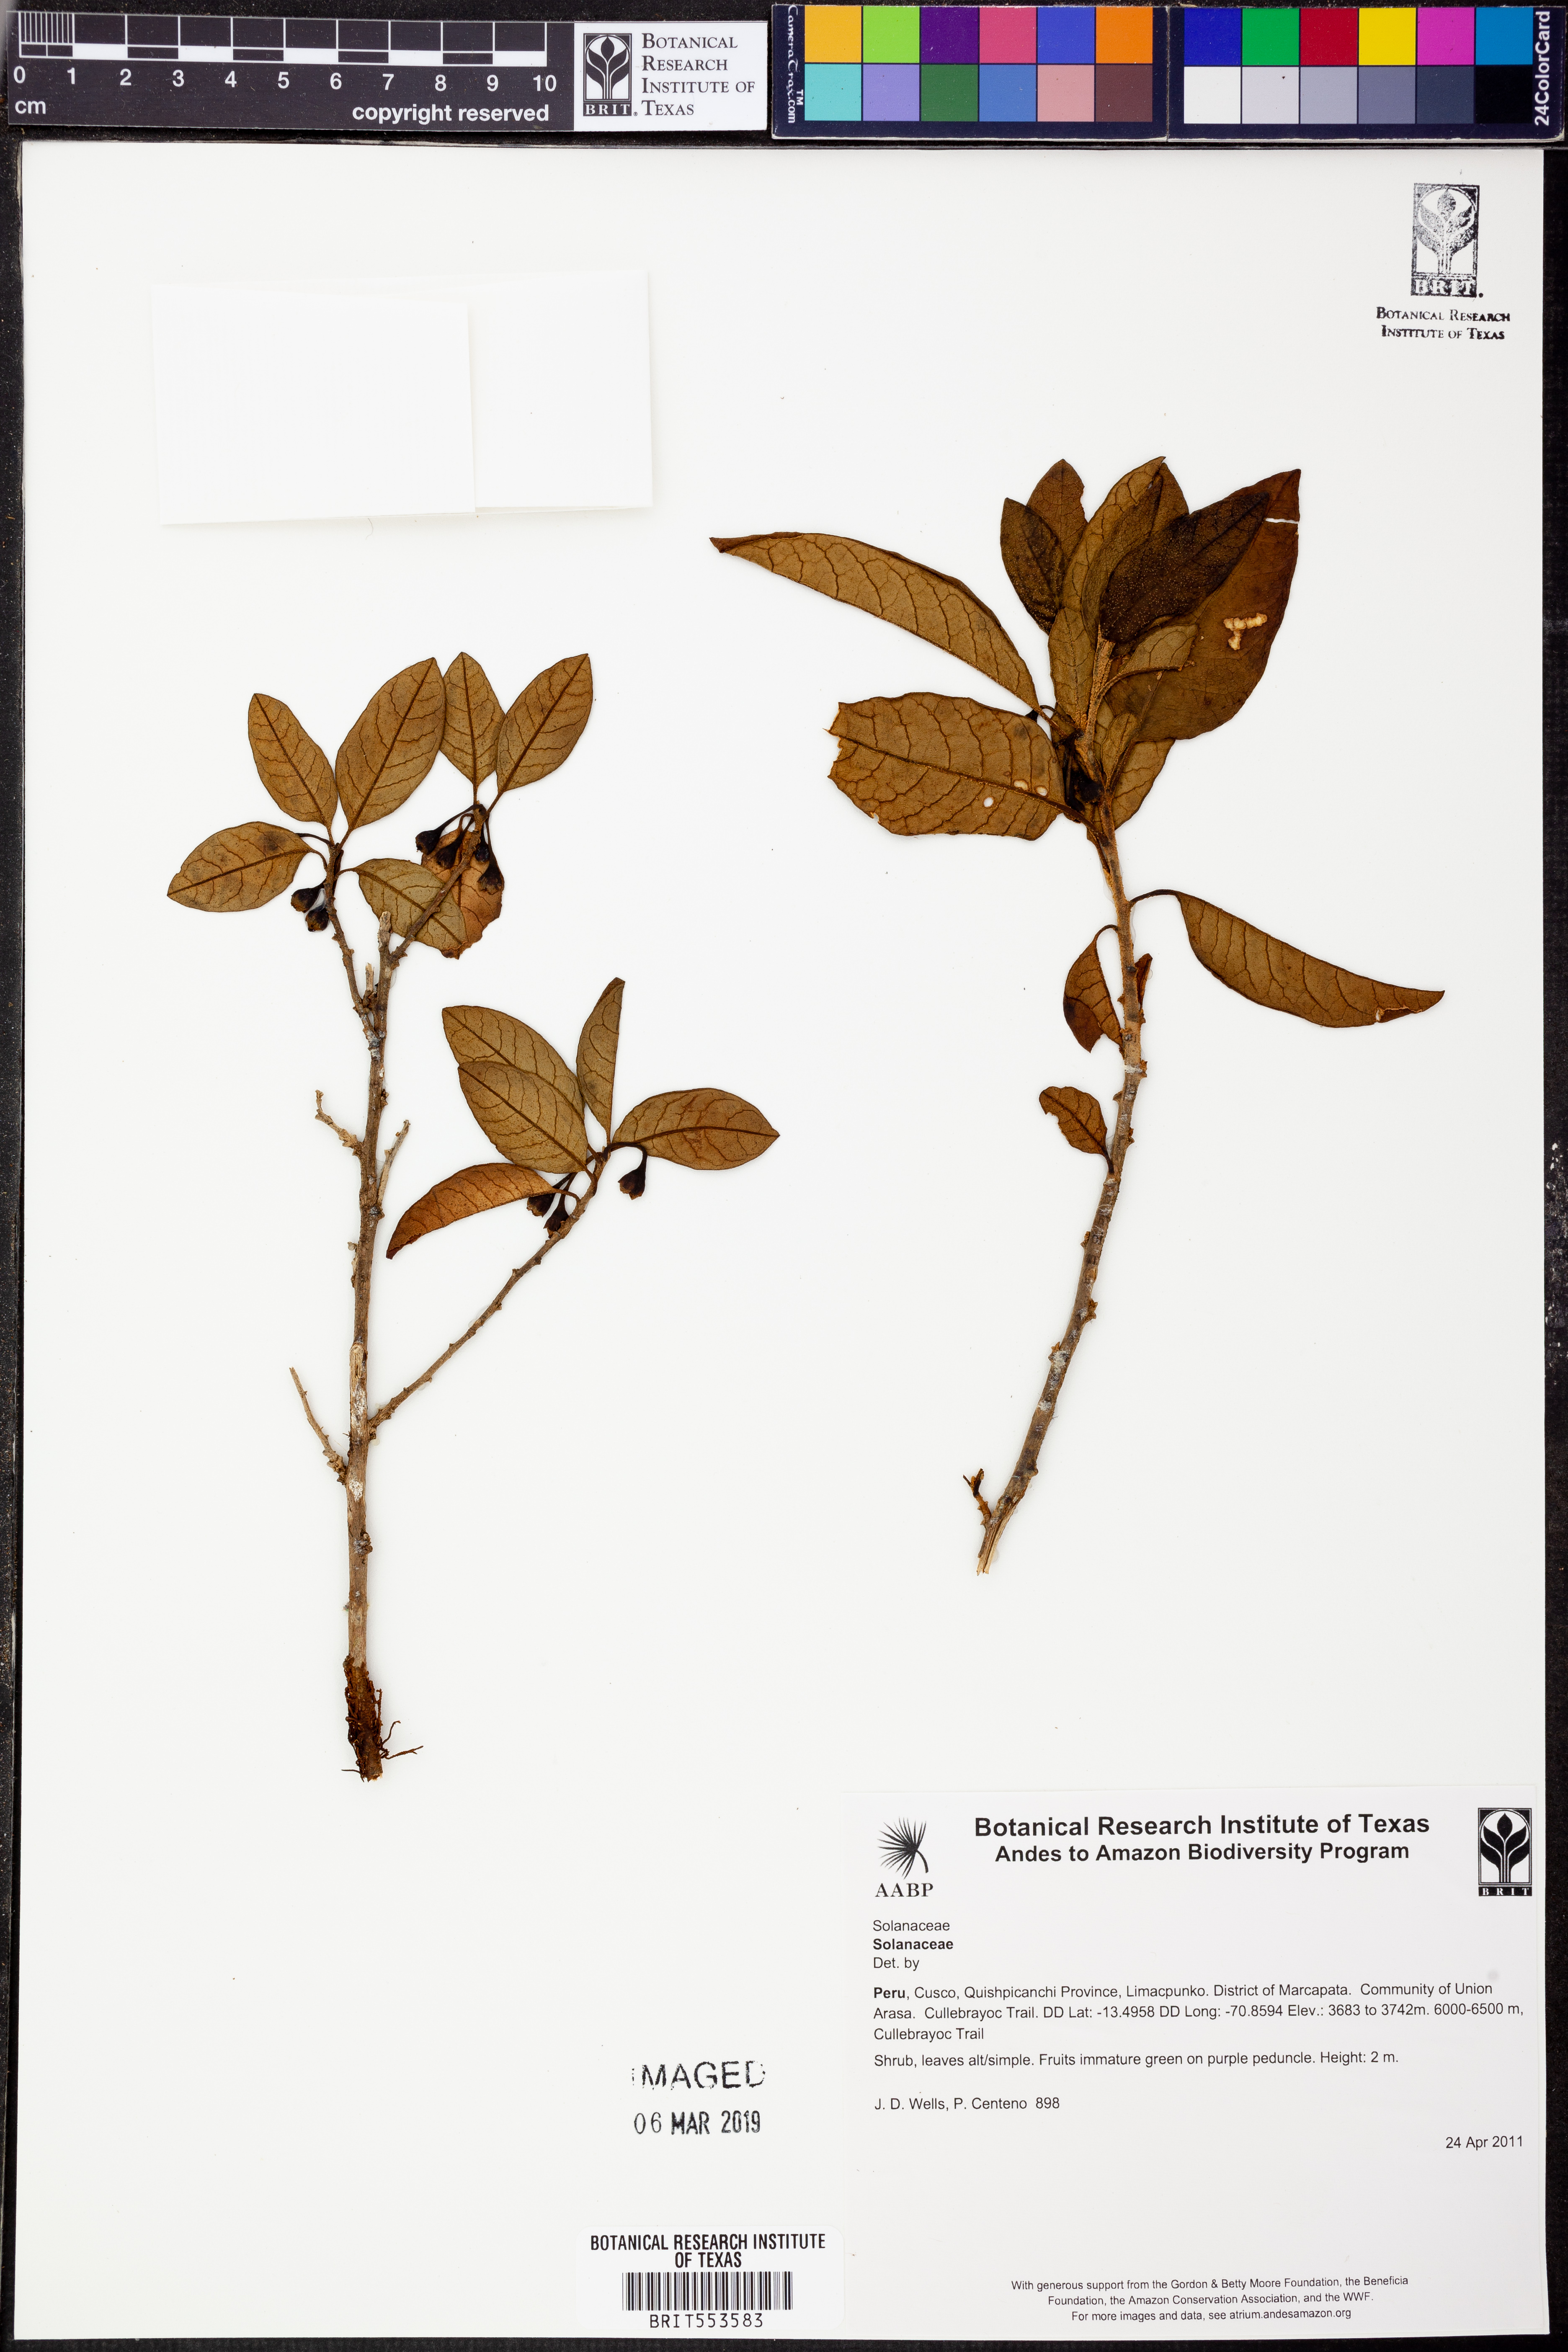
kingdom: Plantae
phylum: Tracheophyta
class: Magnoliopsida
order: Solanales
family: Solanaceae
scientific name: Solanaceae
